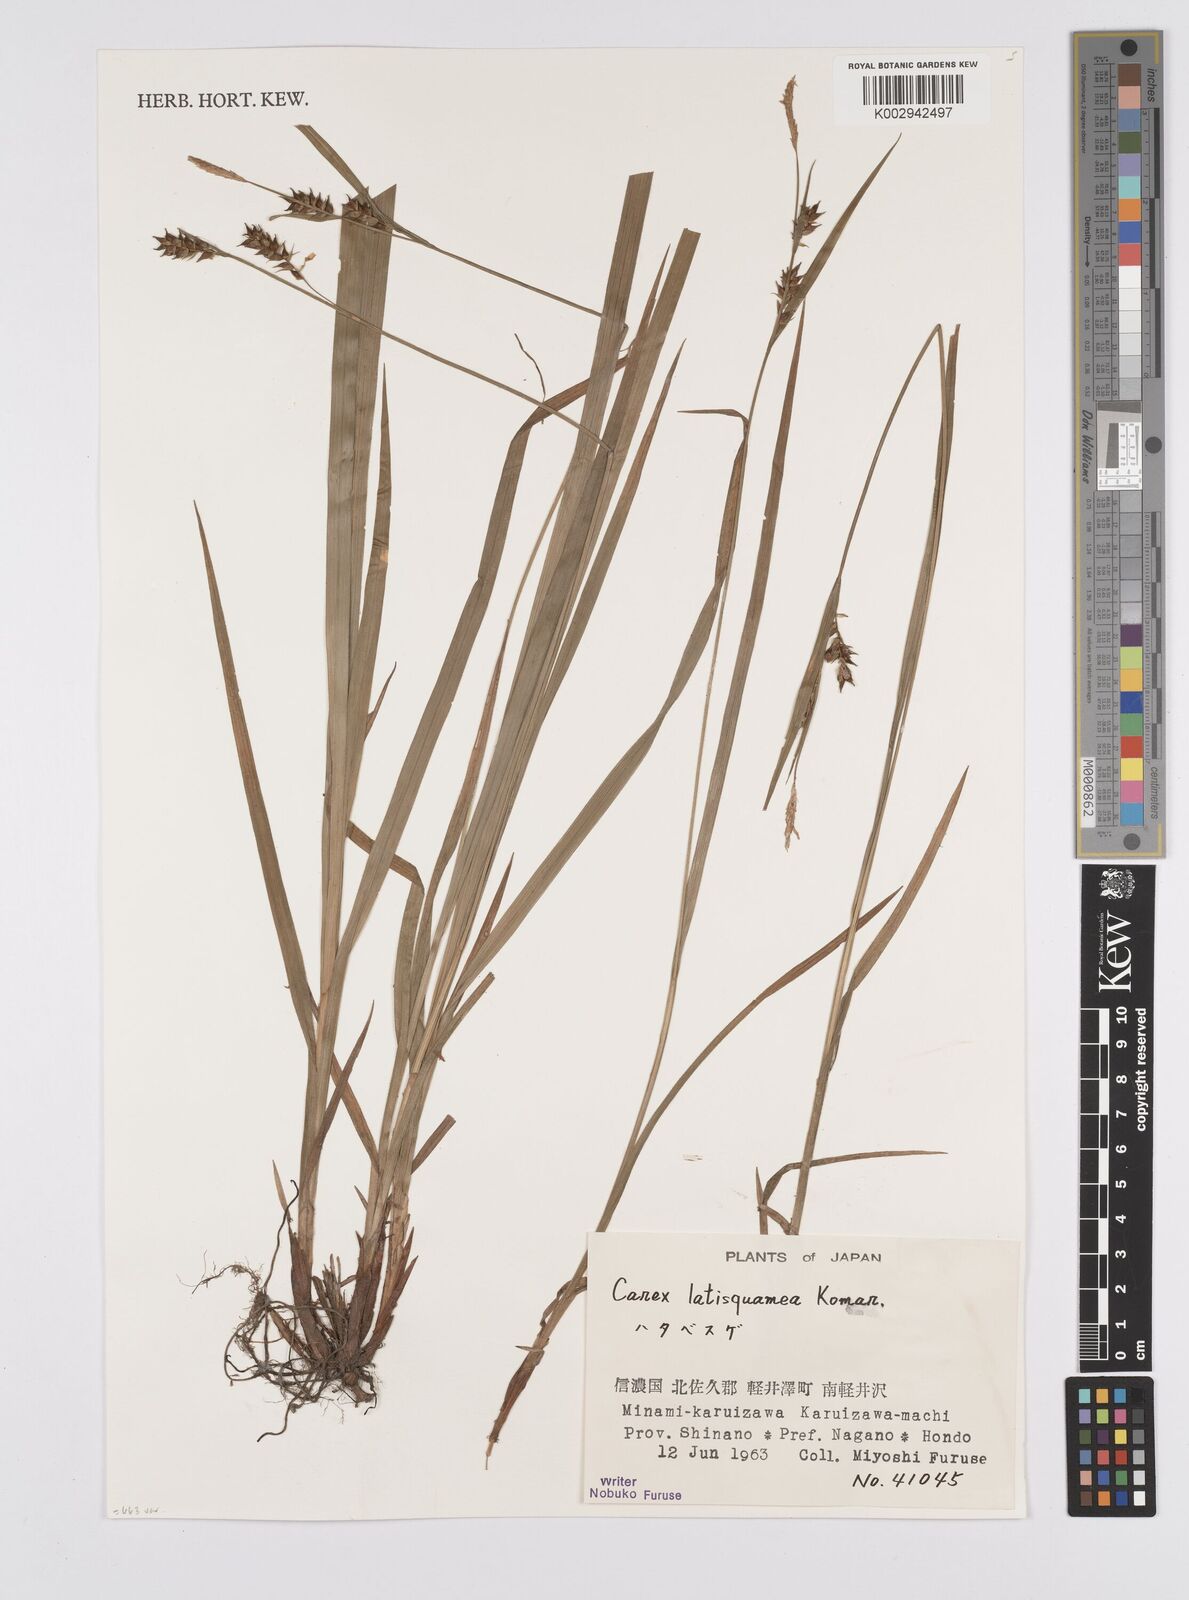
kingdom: Plantae
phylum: Tracheophyta
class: Liliopsida
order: Poales
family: Cyperaceae
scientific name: Cyperaceae
